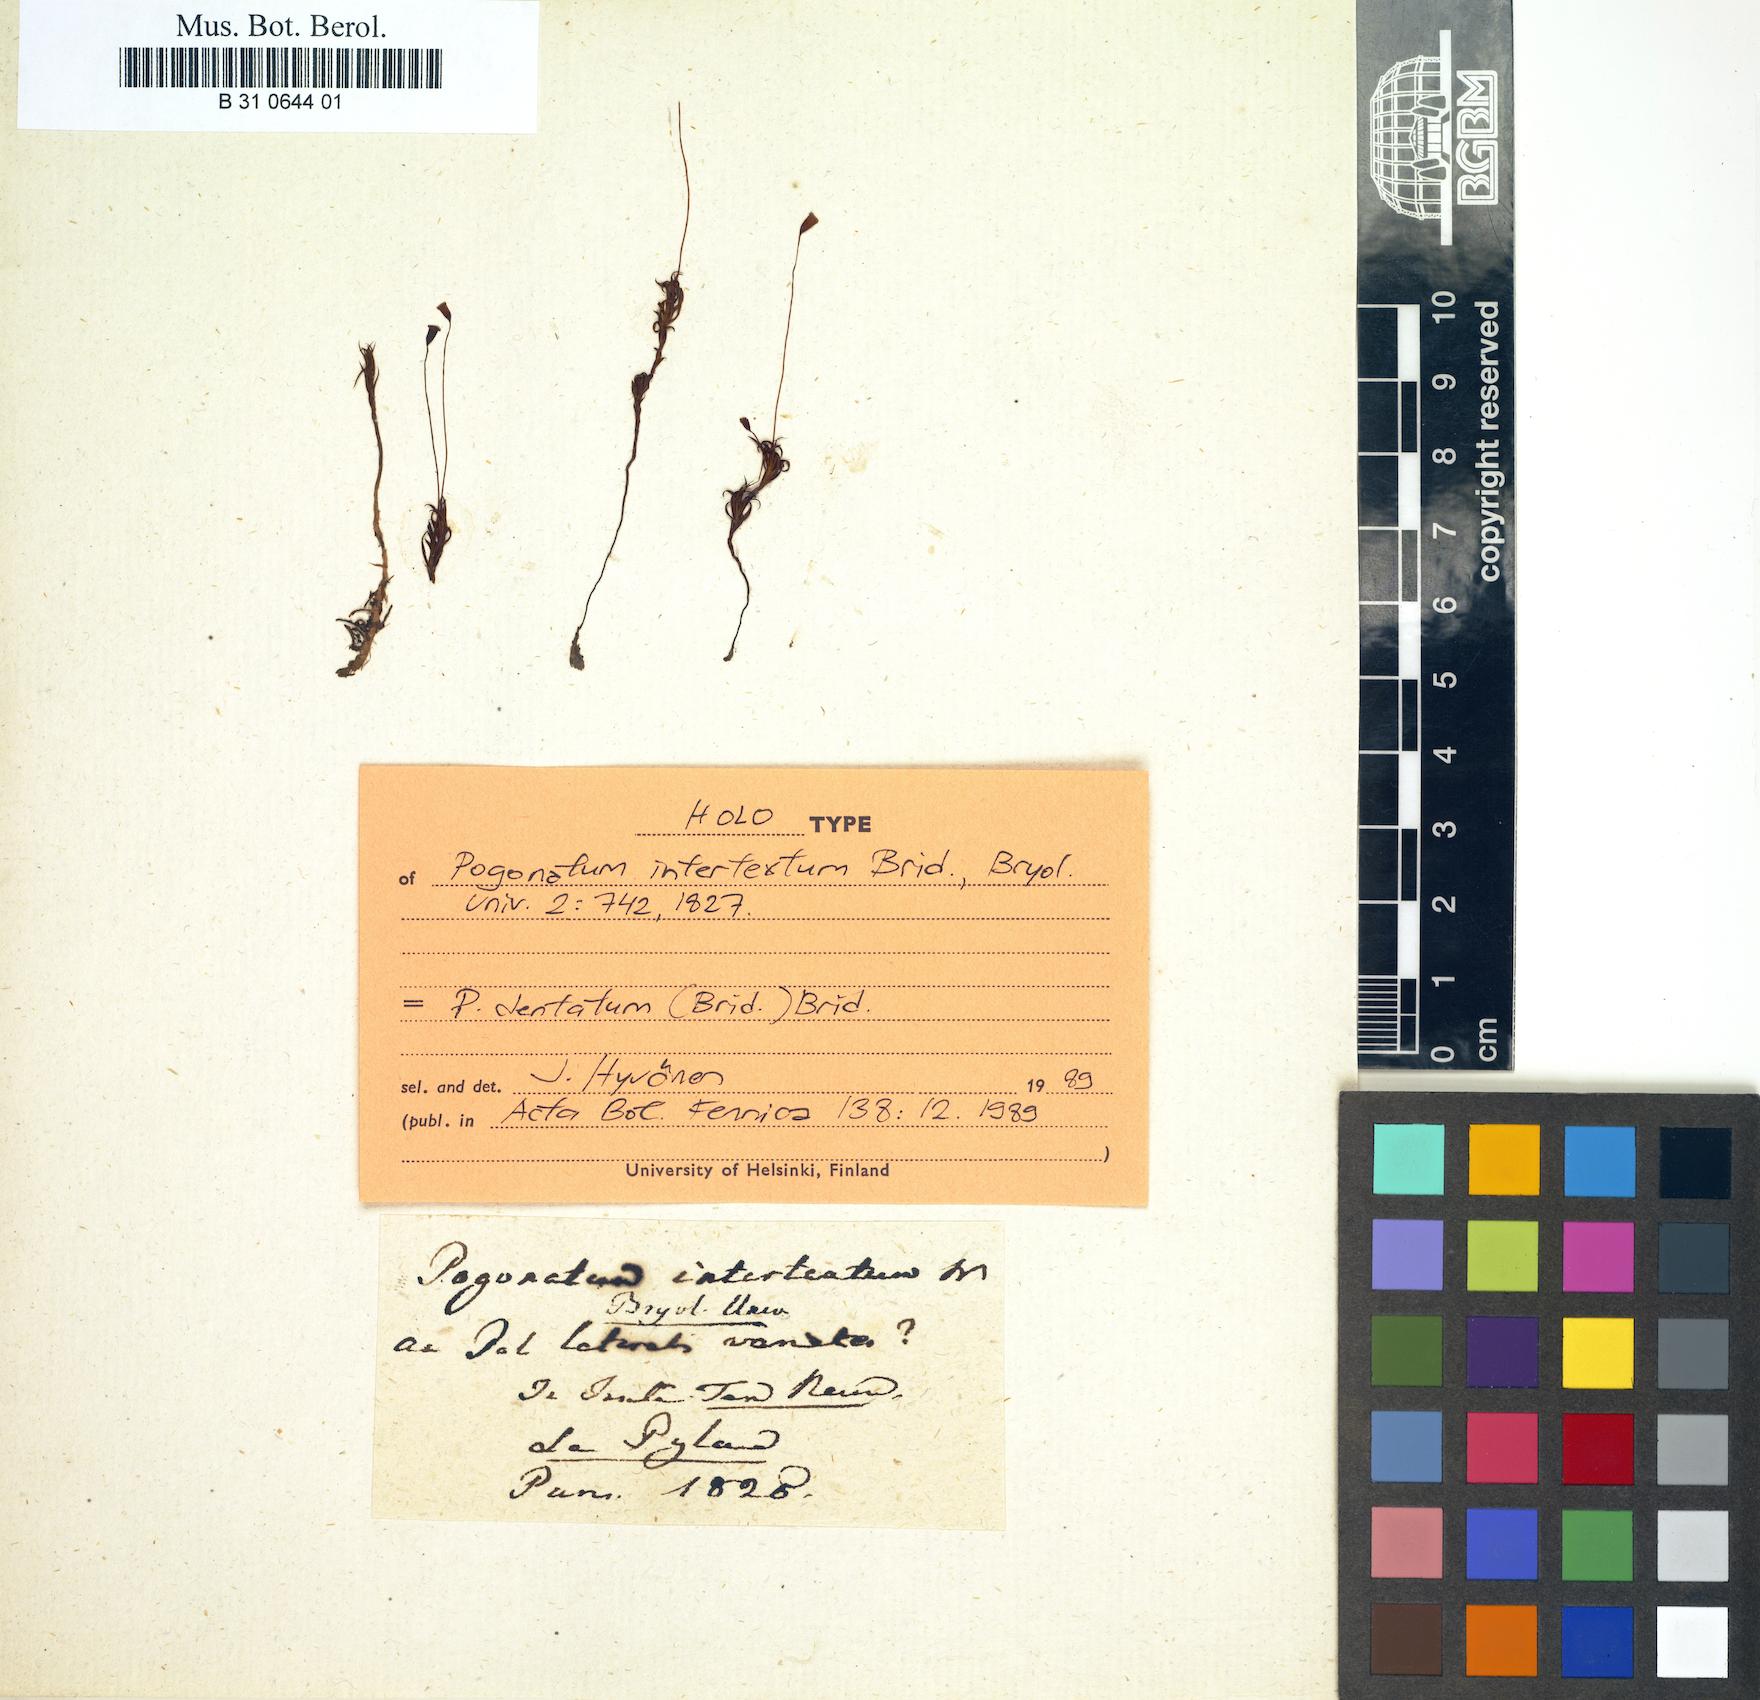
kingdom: Plantae
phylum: Bryophyta
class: Polytrichopsida
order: Polytrichales
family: Polytrichaceae
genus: Pogonatum
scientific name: Pogonatum dentatum
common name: Mountain hair moss
